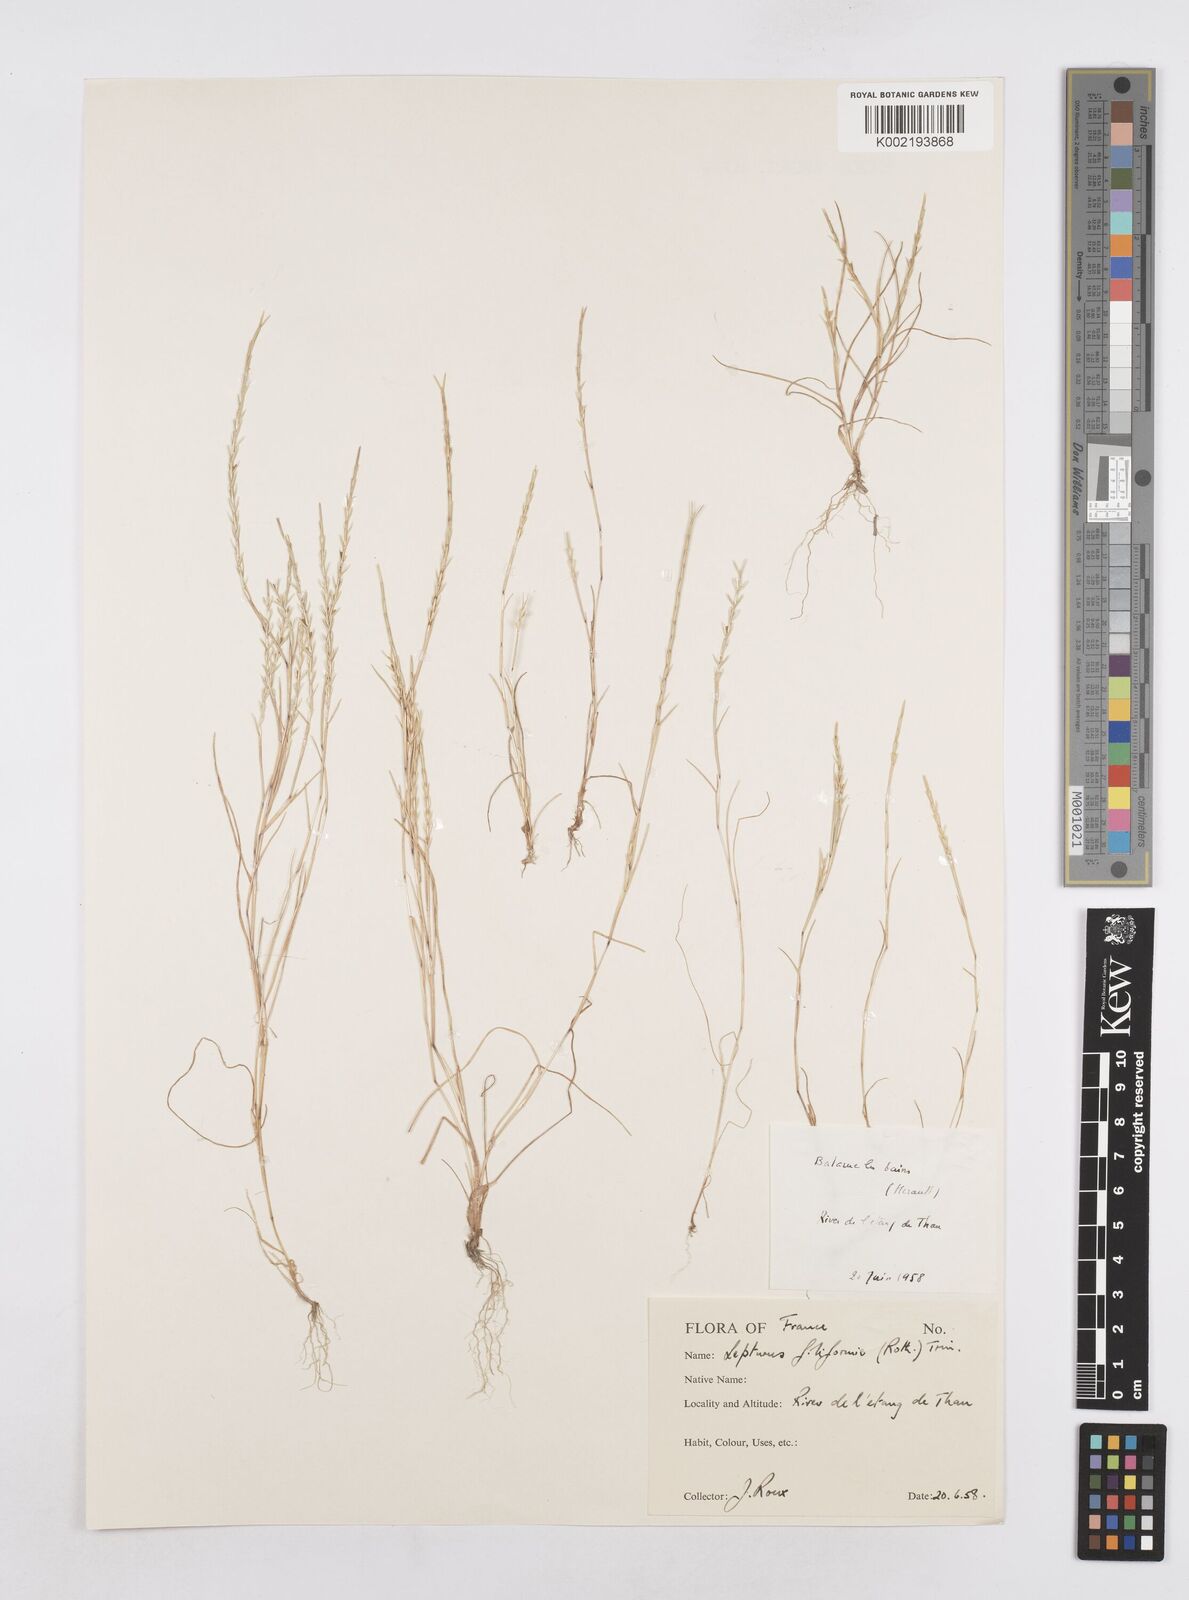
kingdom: Plantae
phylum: Tracheophyta
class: Liliopsida
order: Poales
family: Poaceae
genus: Parapholis
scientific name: Parapholis strigosa
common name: Hard-grass
